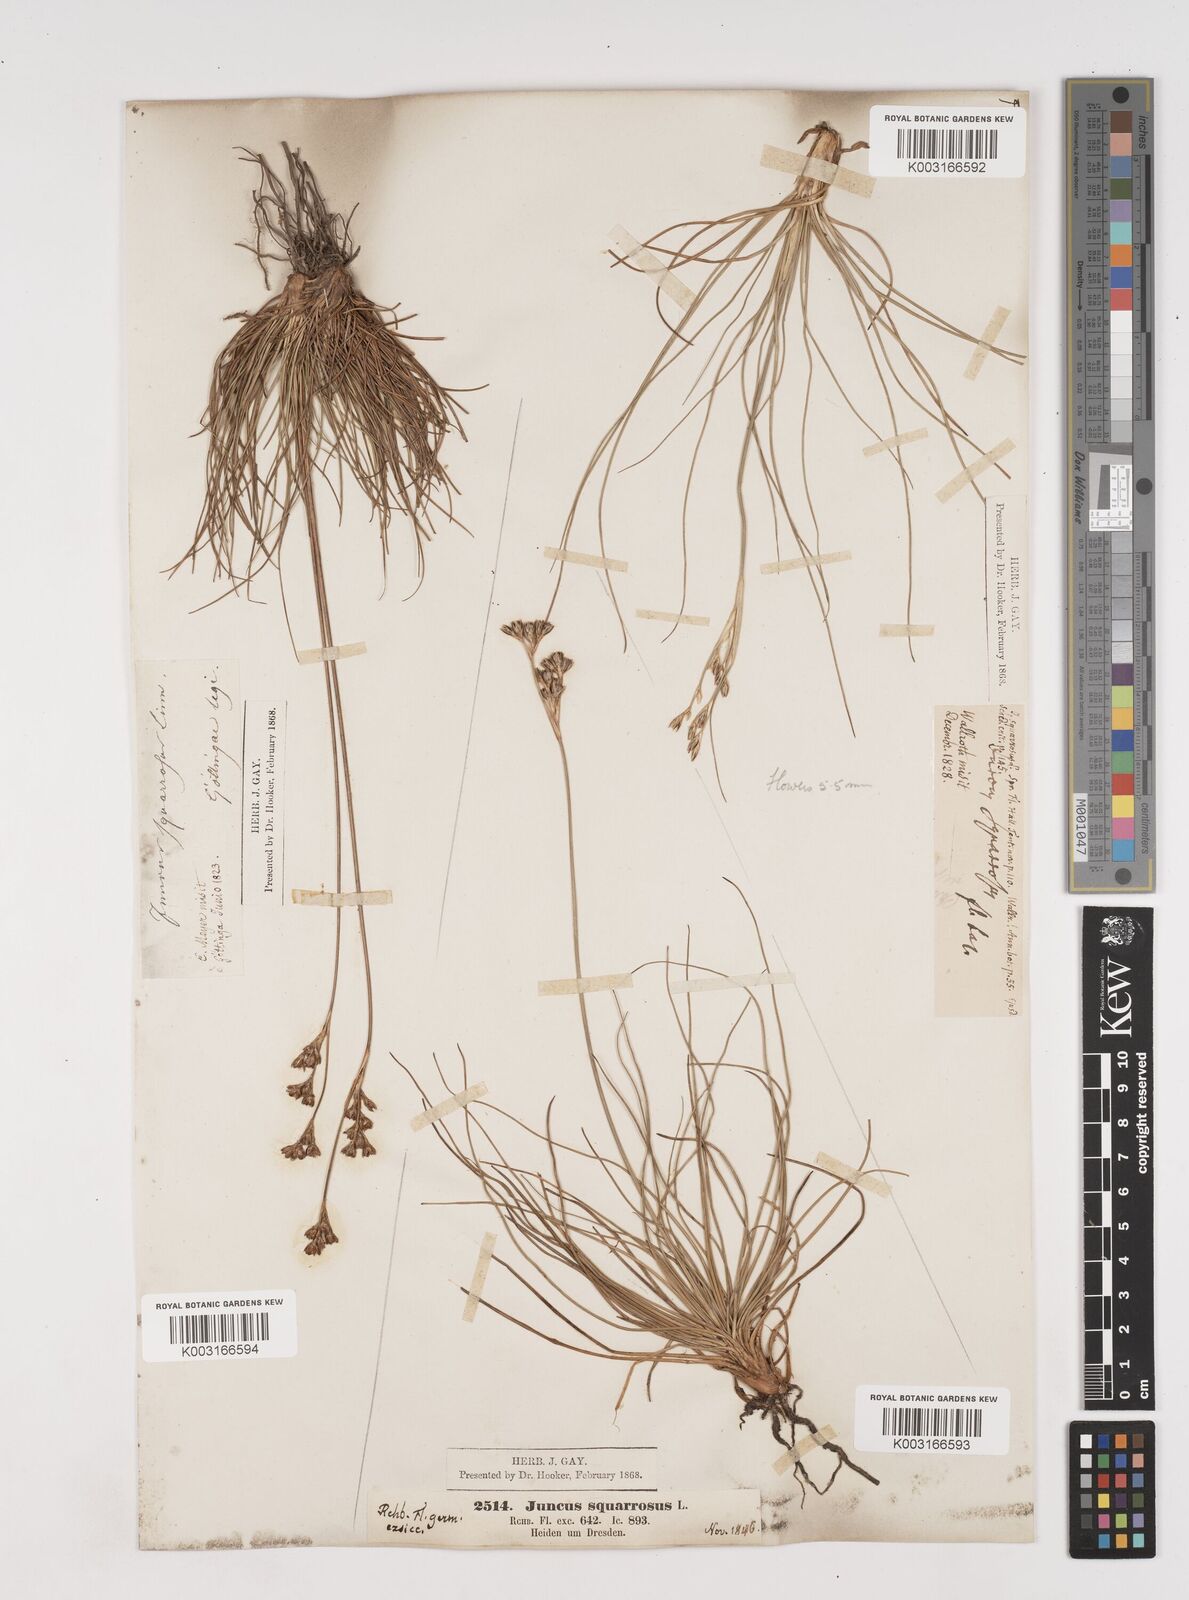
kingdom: Plantae
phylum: Tracheophyta
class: Liliopsida
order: Poales
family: Juncaceae
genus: Juncus
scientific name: Juncus squarrosus
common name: Heath rush
